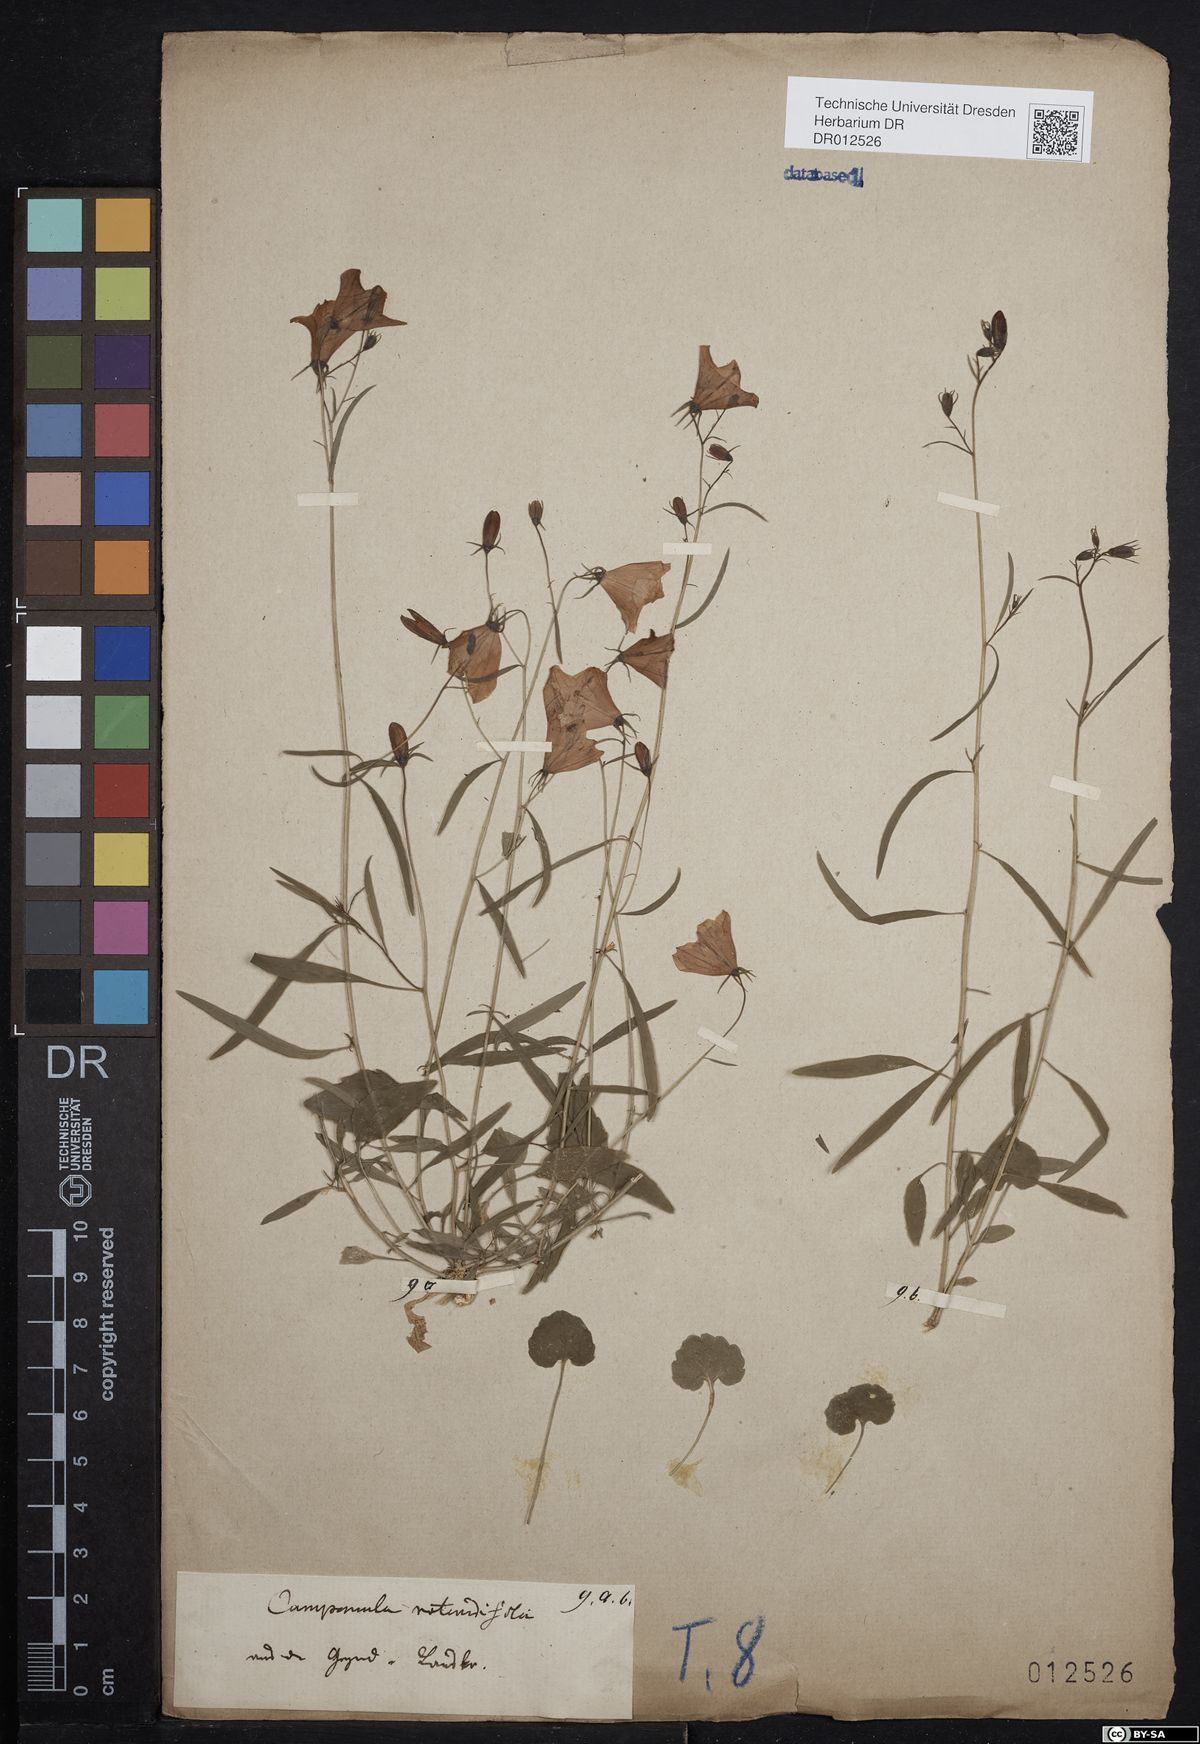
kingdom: Plantae
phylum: Tracheophyta
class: Magnoliopsida
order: Asterales
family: Campanulaceae
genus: Campanula
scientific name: Campanula rotundifolia
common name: Harebell
